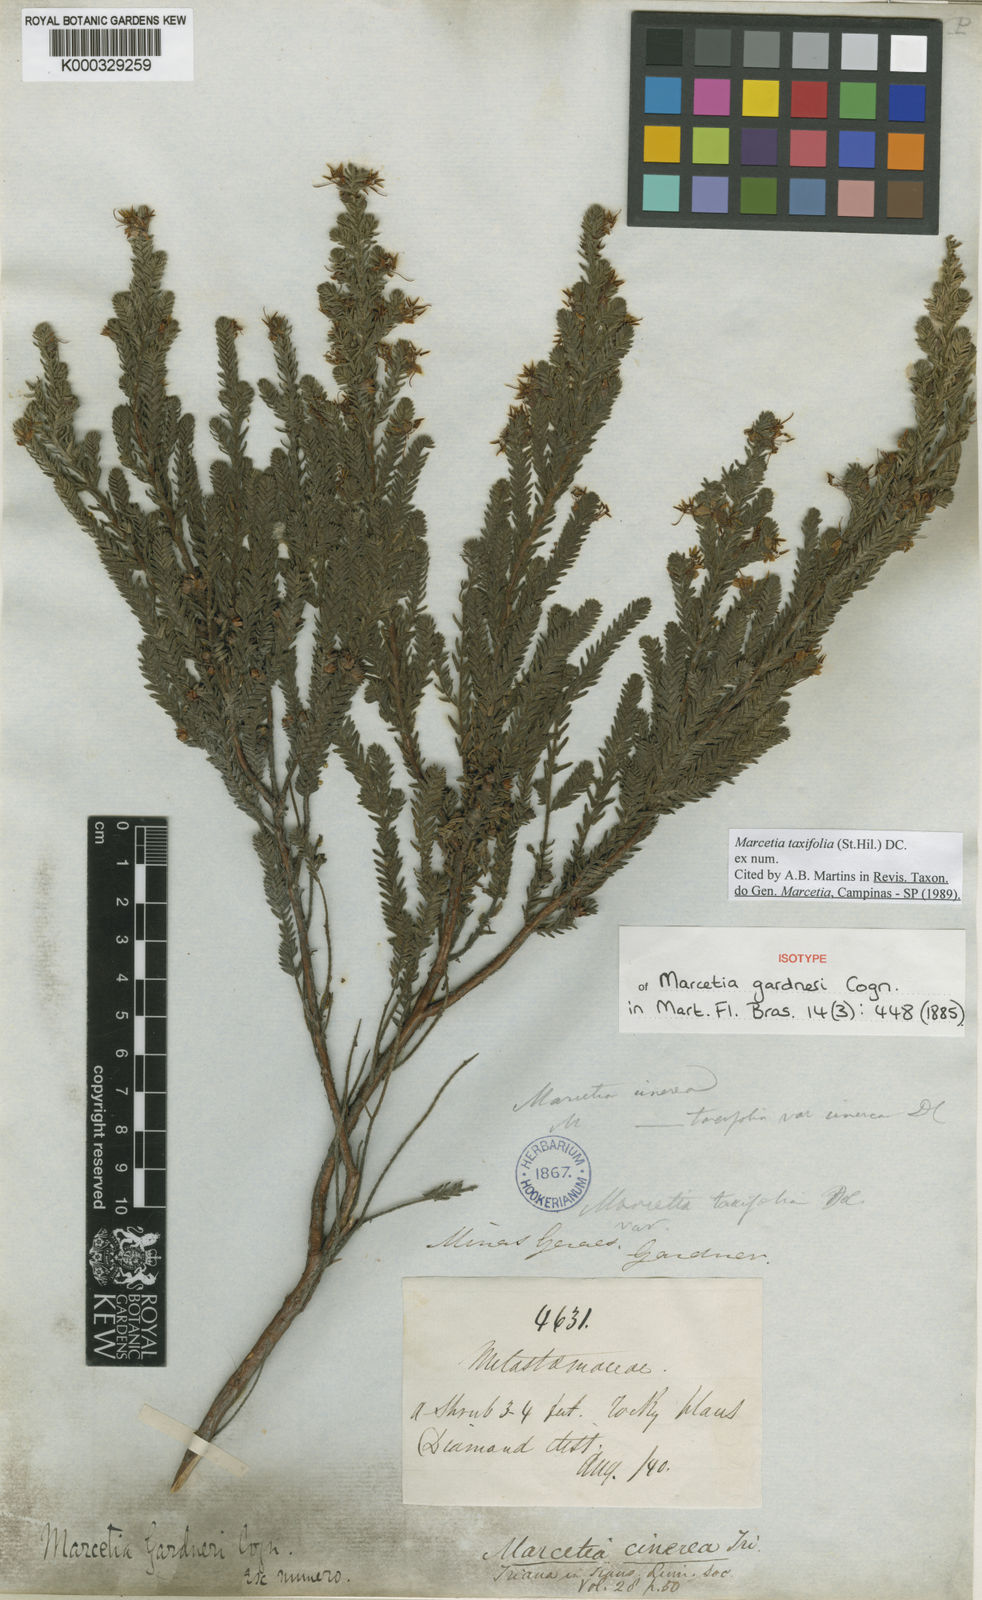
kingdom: Plantae
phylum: Tracheophyta
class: Magnoliopsida
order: Myrtales
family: Melastomataceae
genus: Marcetia
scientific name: Marcetia taxifolia
